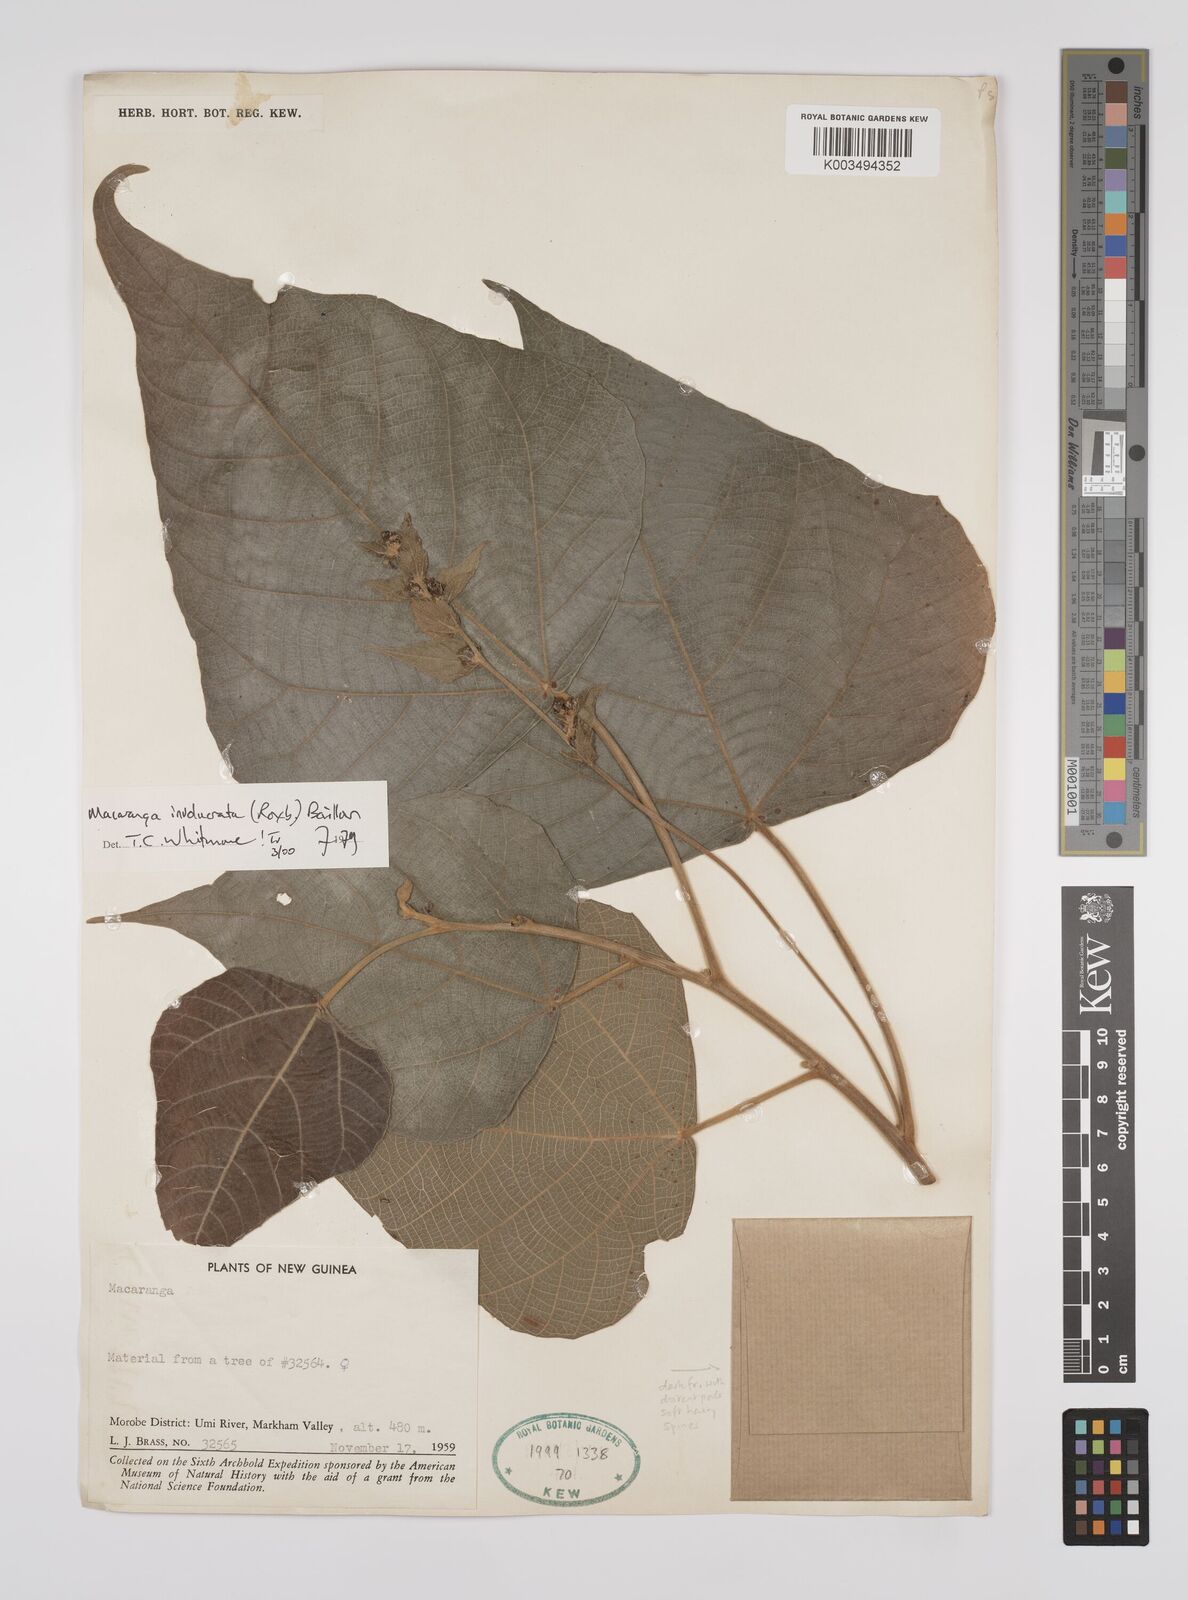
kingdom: Plantae
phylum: Tracheophyta
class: Magnoliopsida
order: Malpighiales
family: Euphorbiaceae
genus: Macaranga
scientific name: Macaranga involucrata
